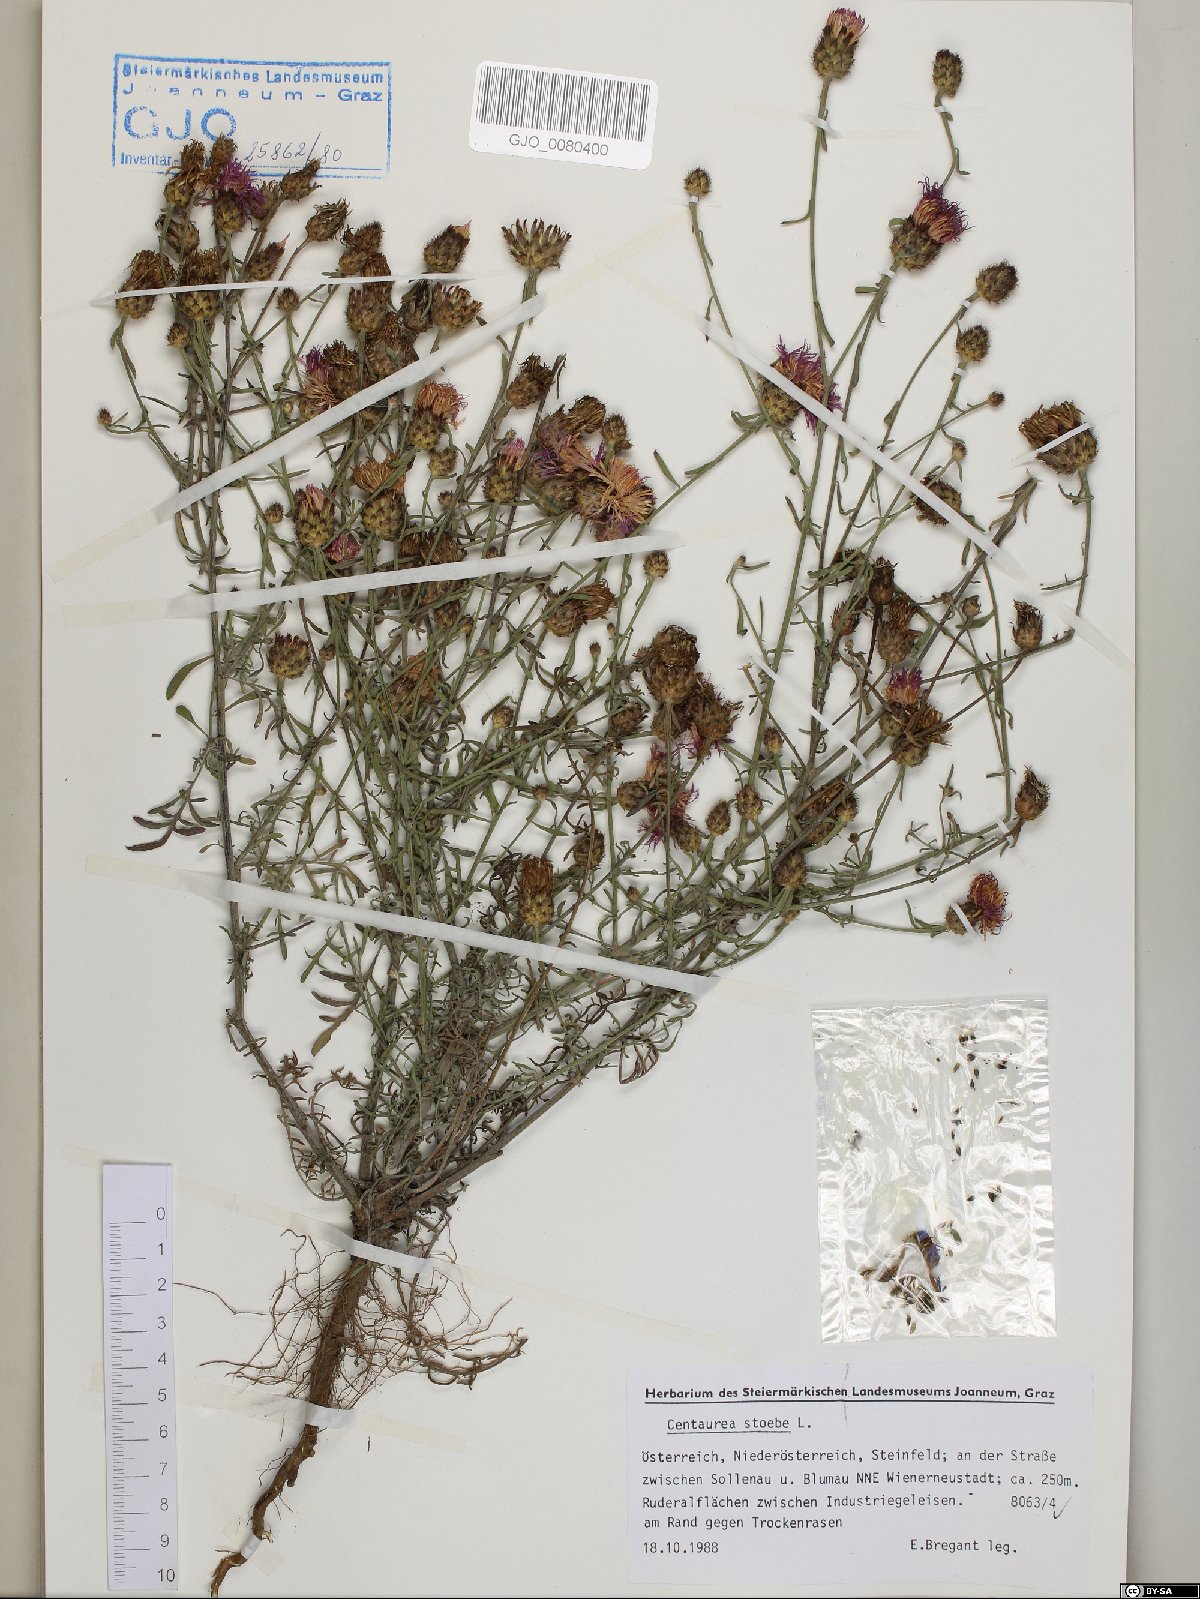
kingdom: Plantae
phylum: Tracheophyta
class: Magnoliopsida
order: Asterales
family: Asteraceae
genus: Centaurea
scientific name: Centaurea stoebe
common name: Spotted knapweed
